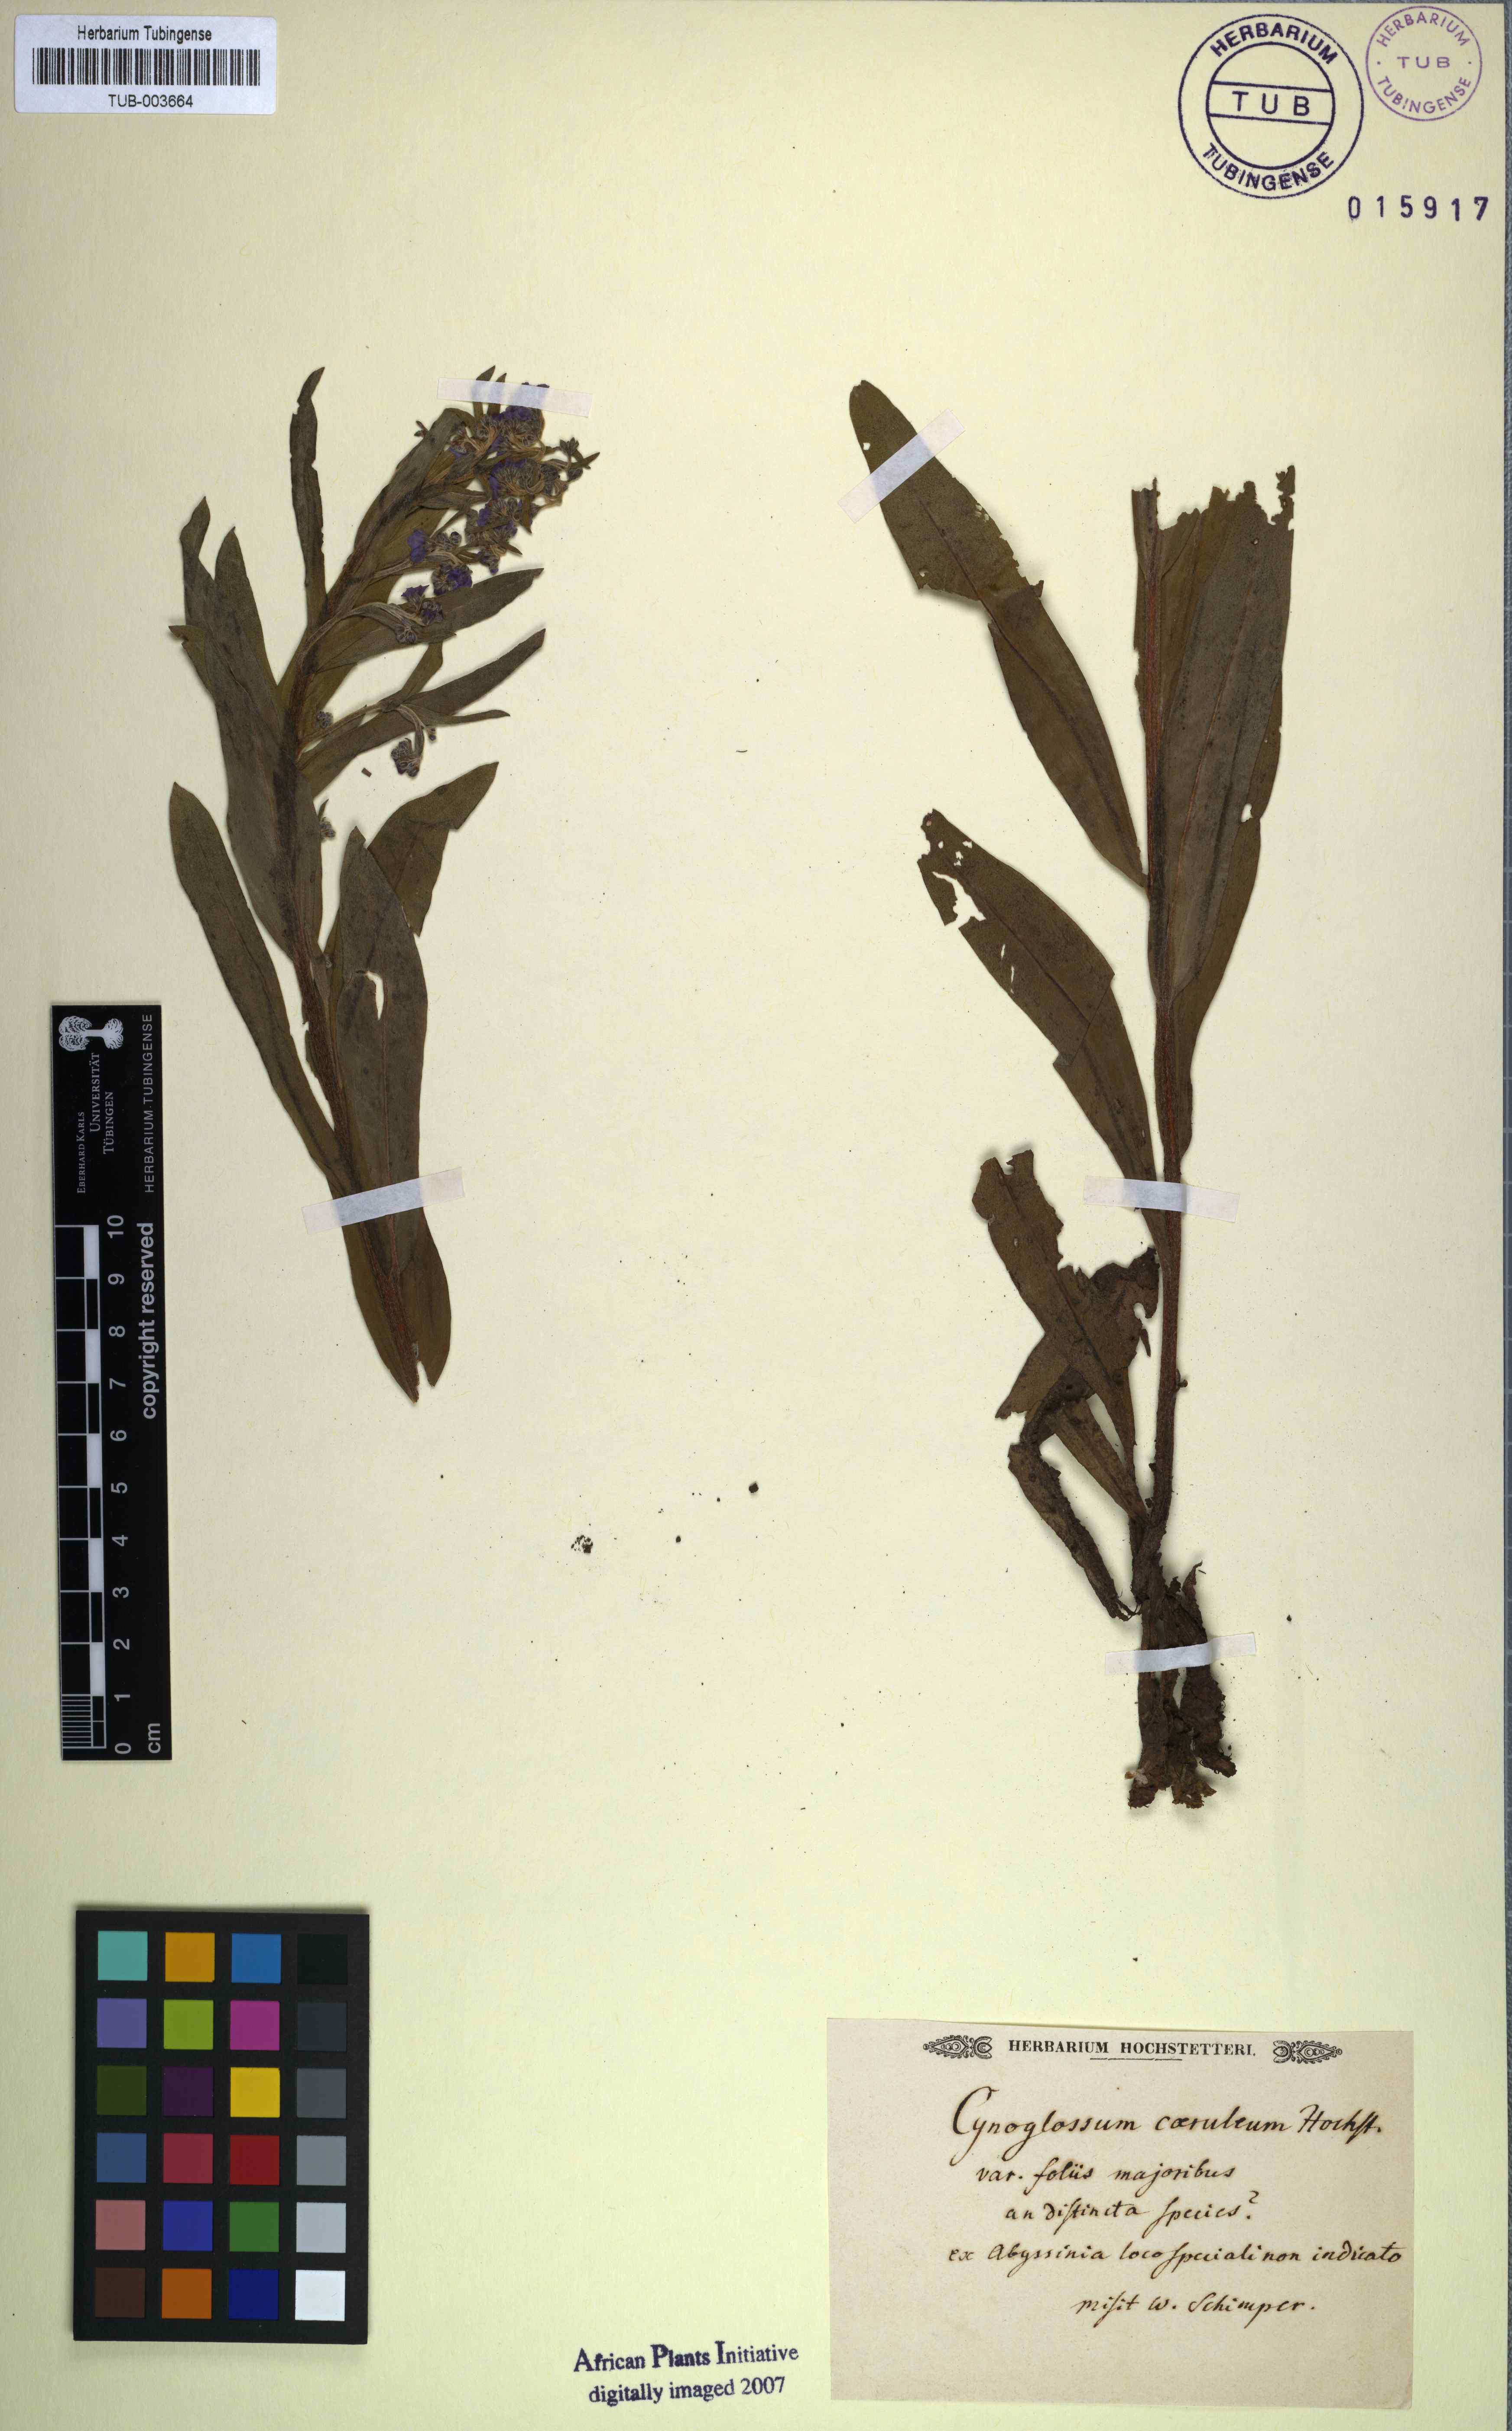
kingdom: Plantae
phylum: Tracheophyta
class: Magnoliopsida
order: Boraginales
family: Boraginaceae
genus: Paracynoglossum
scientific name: Paracynoglossum afrocaeruleum
